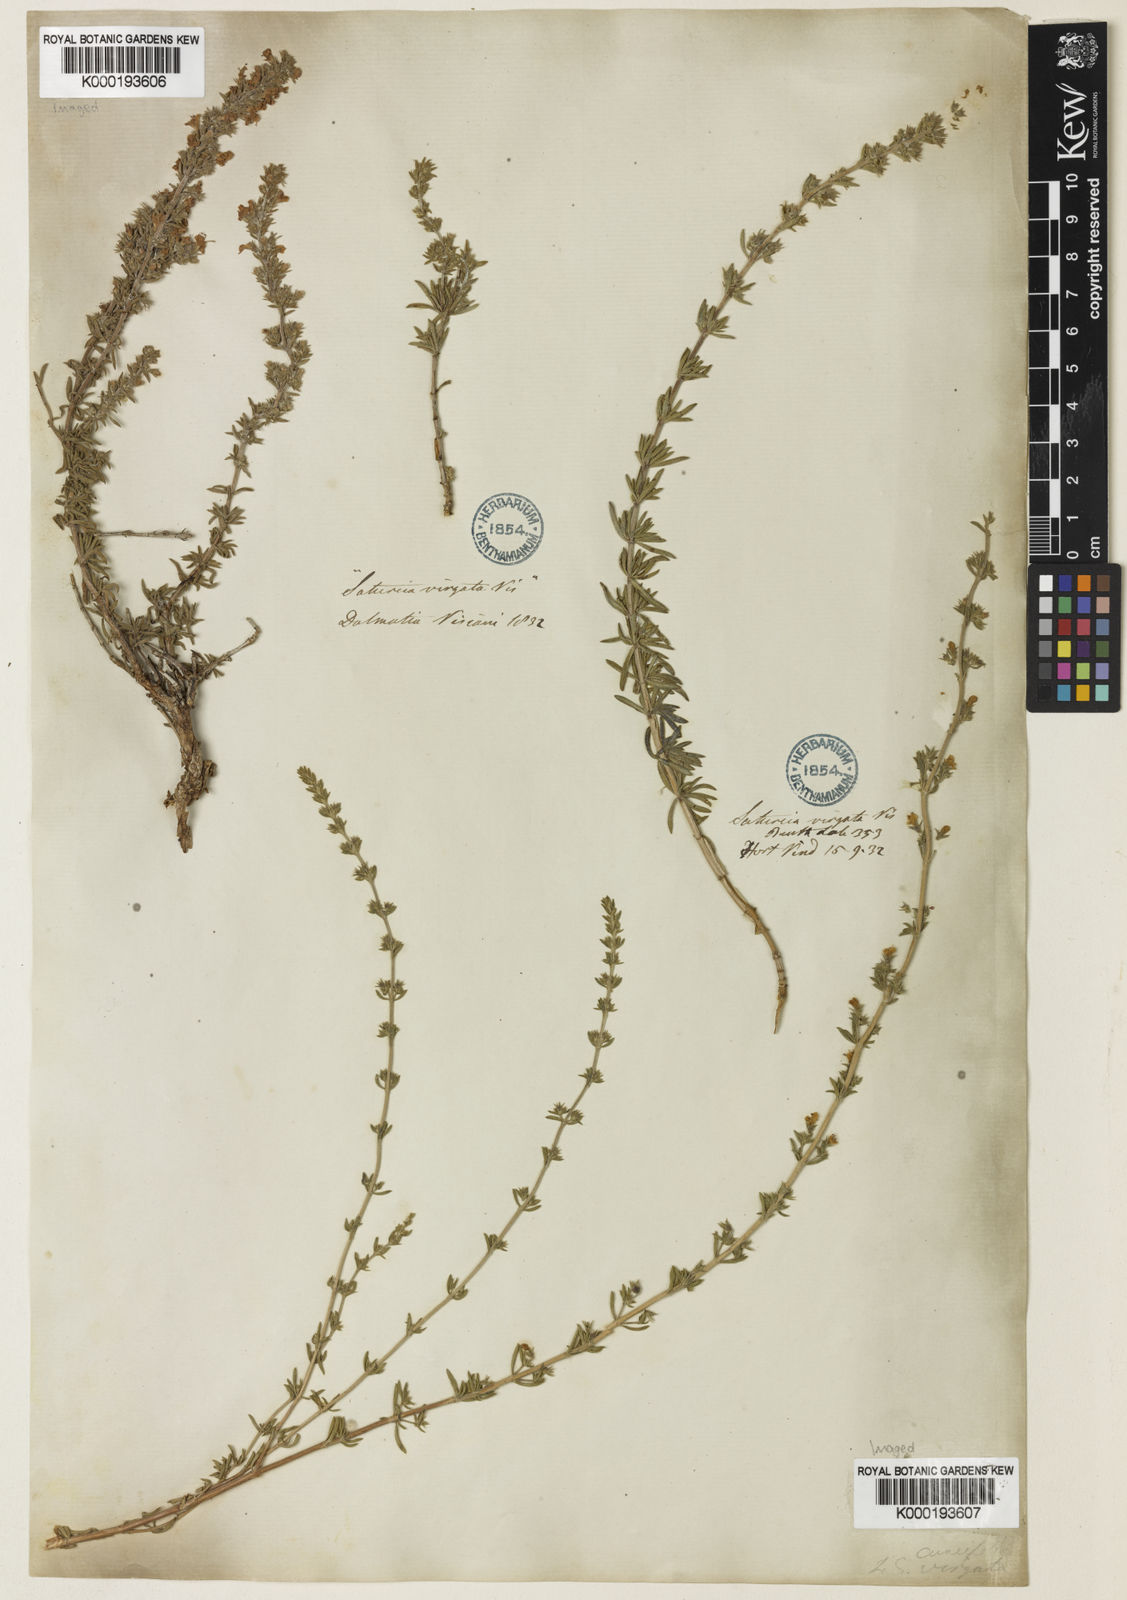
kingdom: Plantae
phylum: Tracheophyta
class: Magnoliopsida
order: Lamiales
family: Lamiaceae
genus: Satureja
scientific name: Satureja cuneifolia
